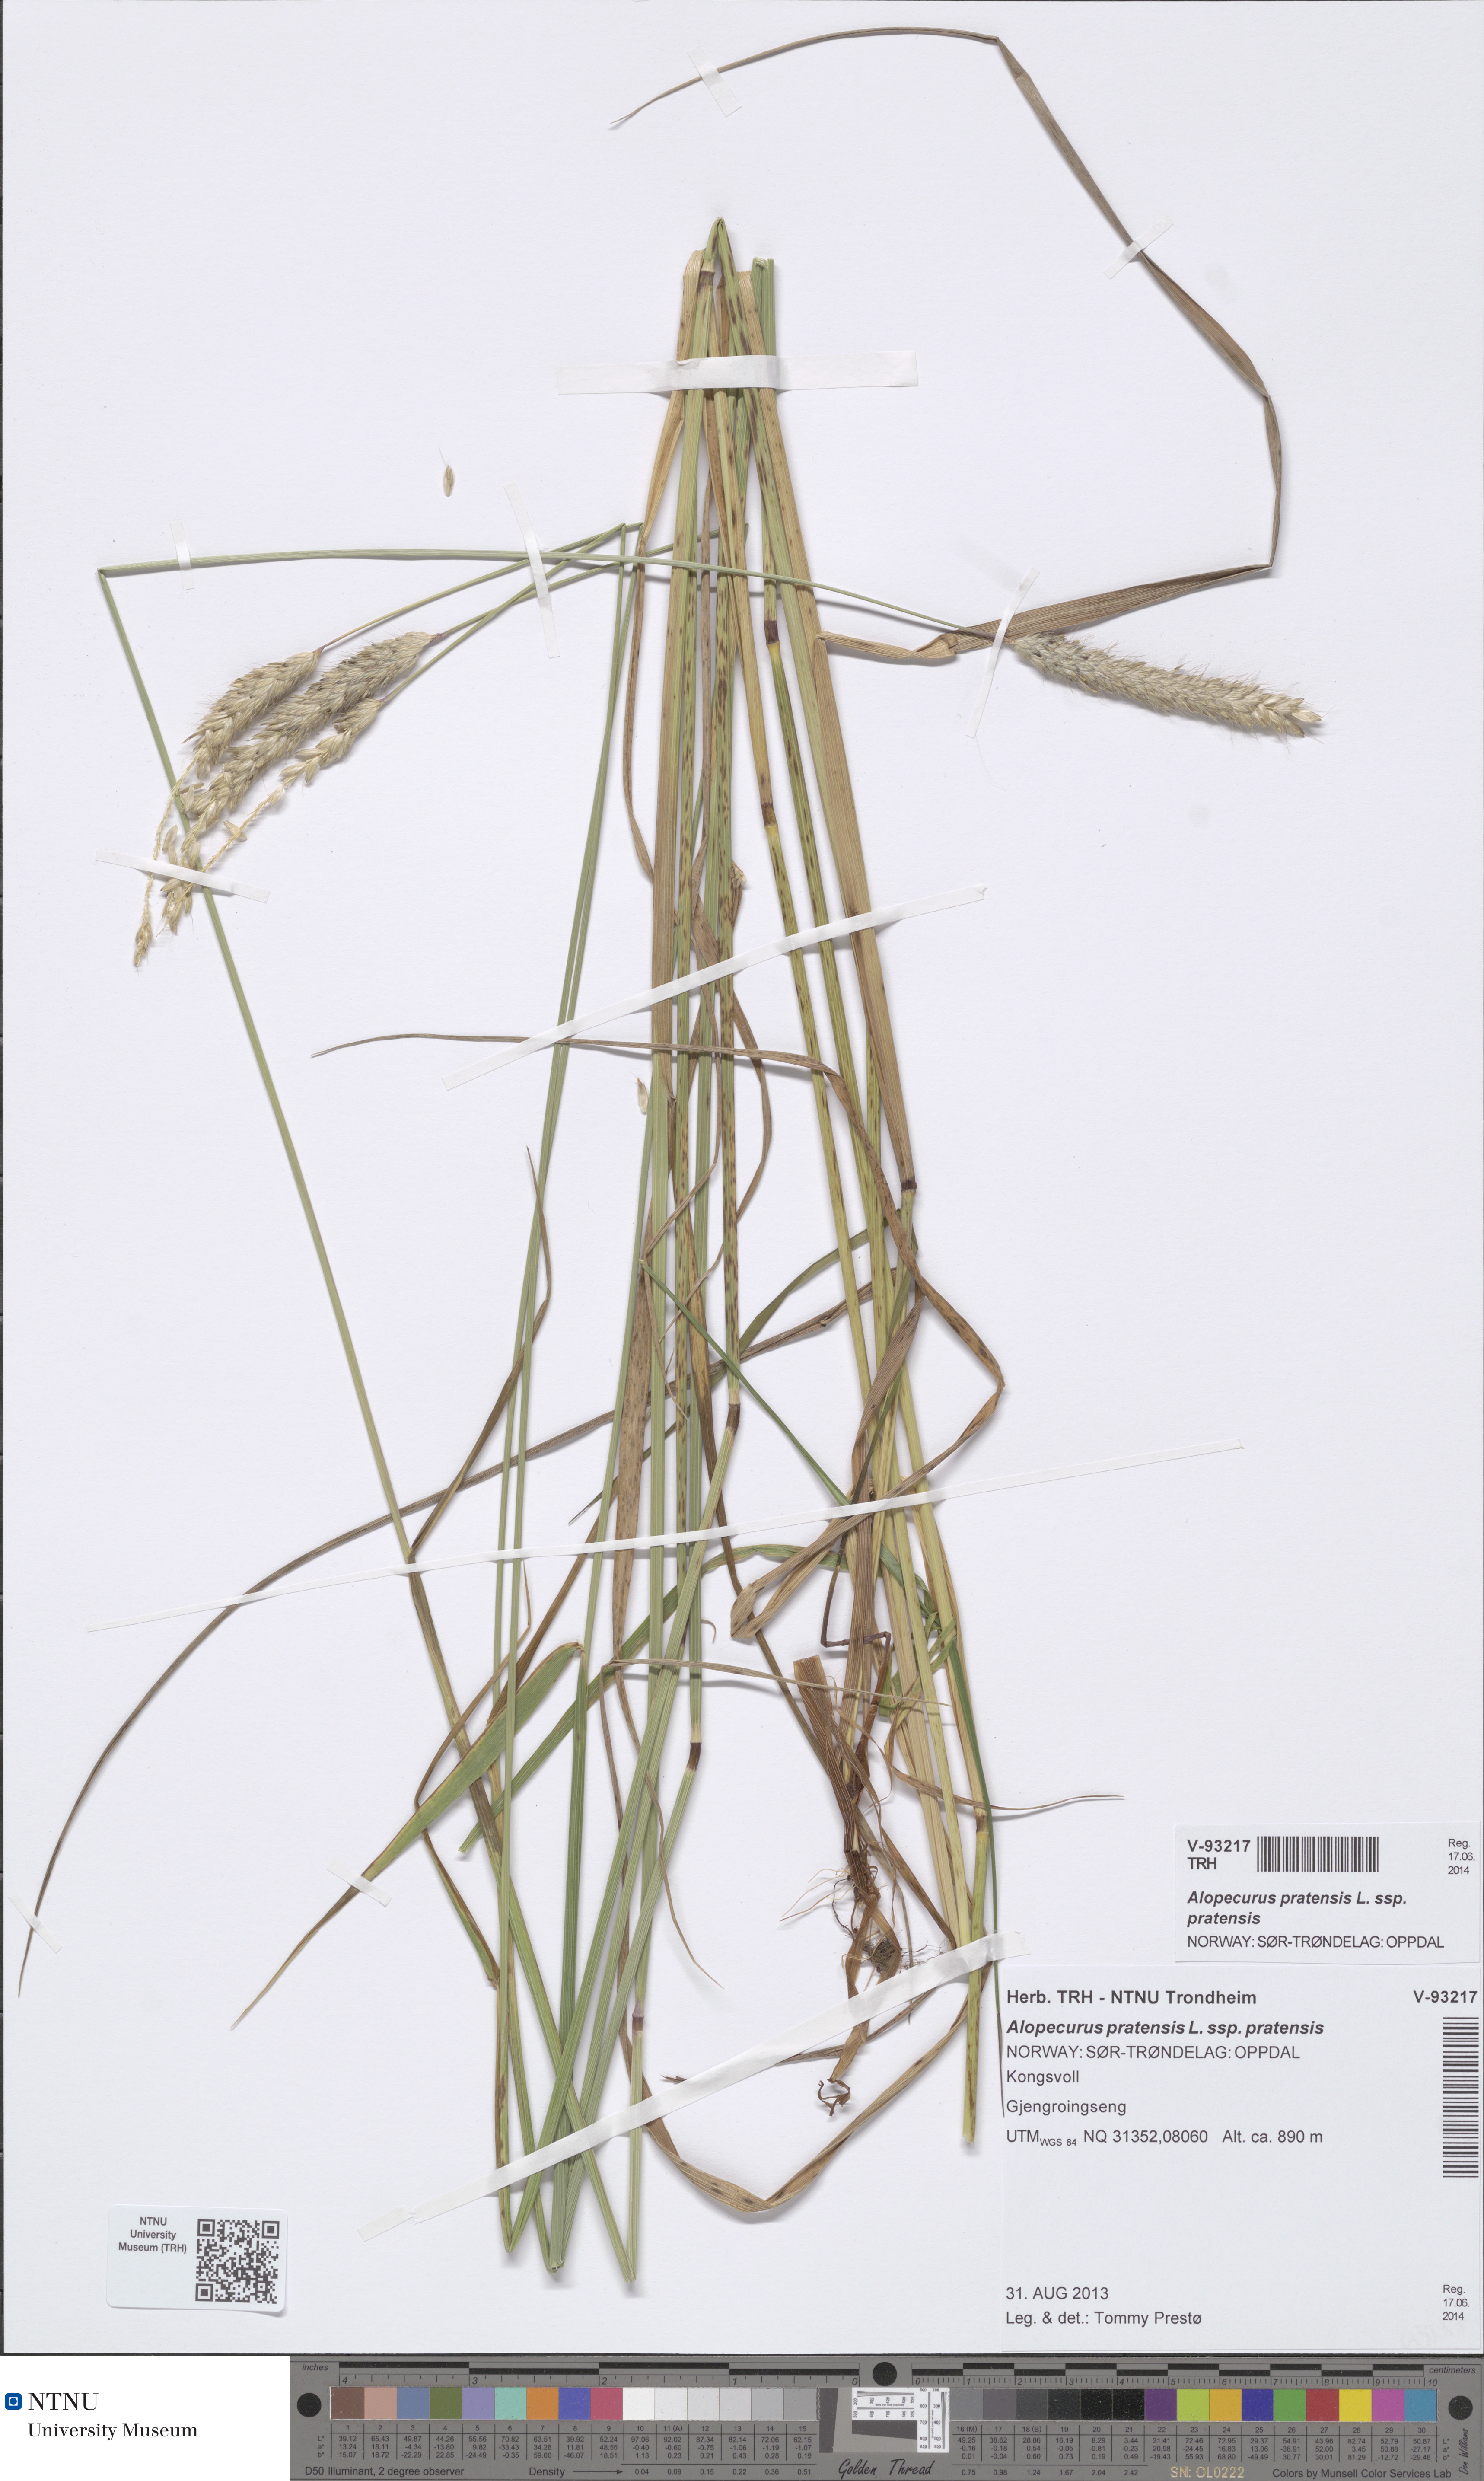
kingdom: Plantae
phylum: Tracheophyta
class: Liliopsida
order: Poales
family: Poaceae
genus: Alopecurus
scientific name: Alopecurus pratensis
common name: Meadow foxtail
